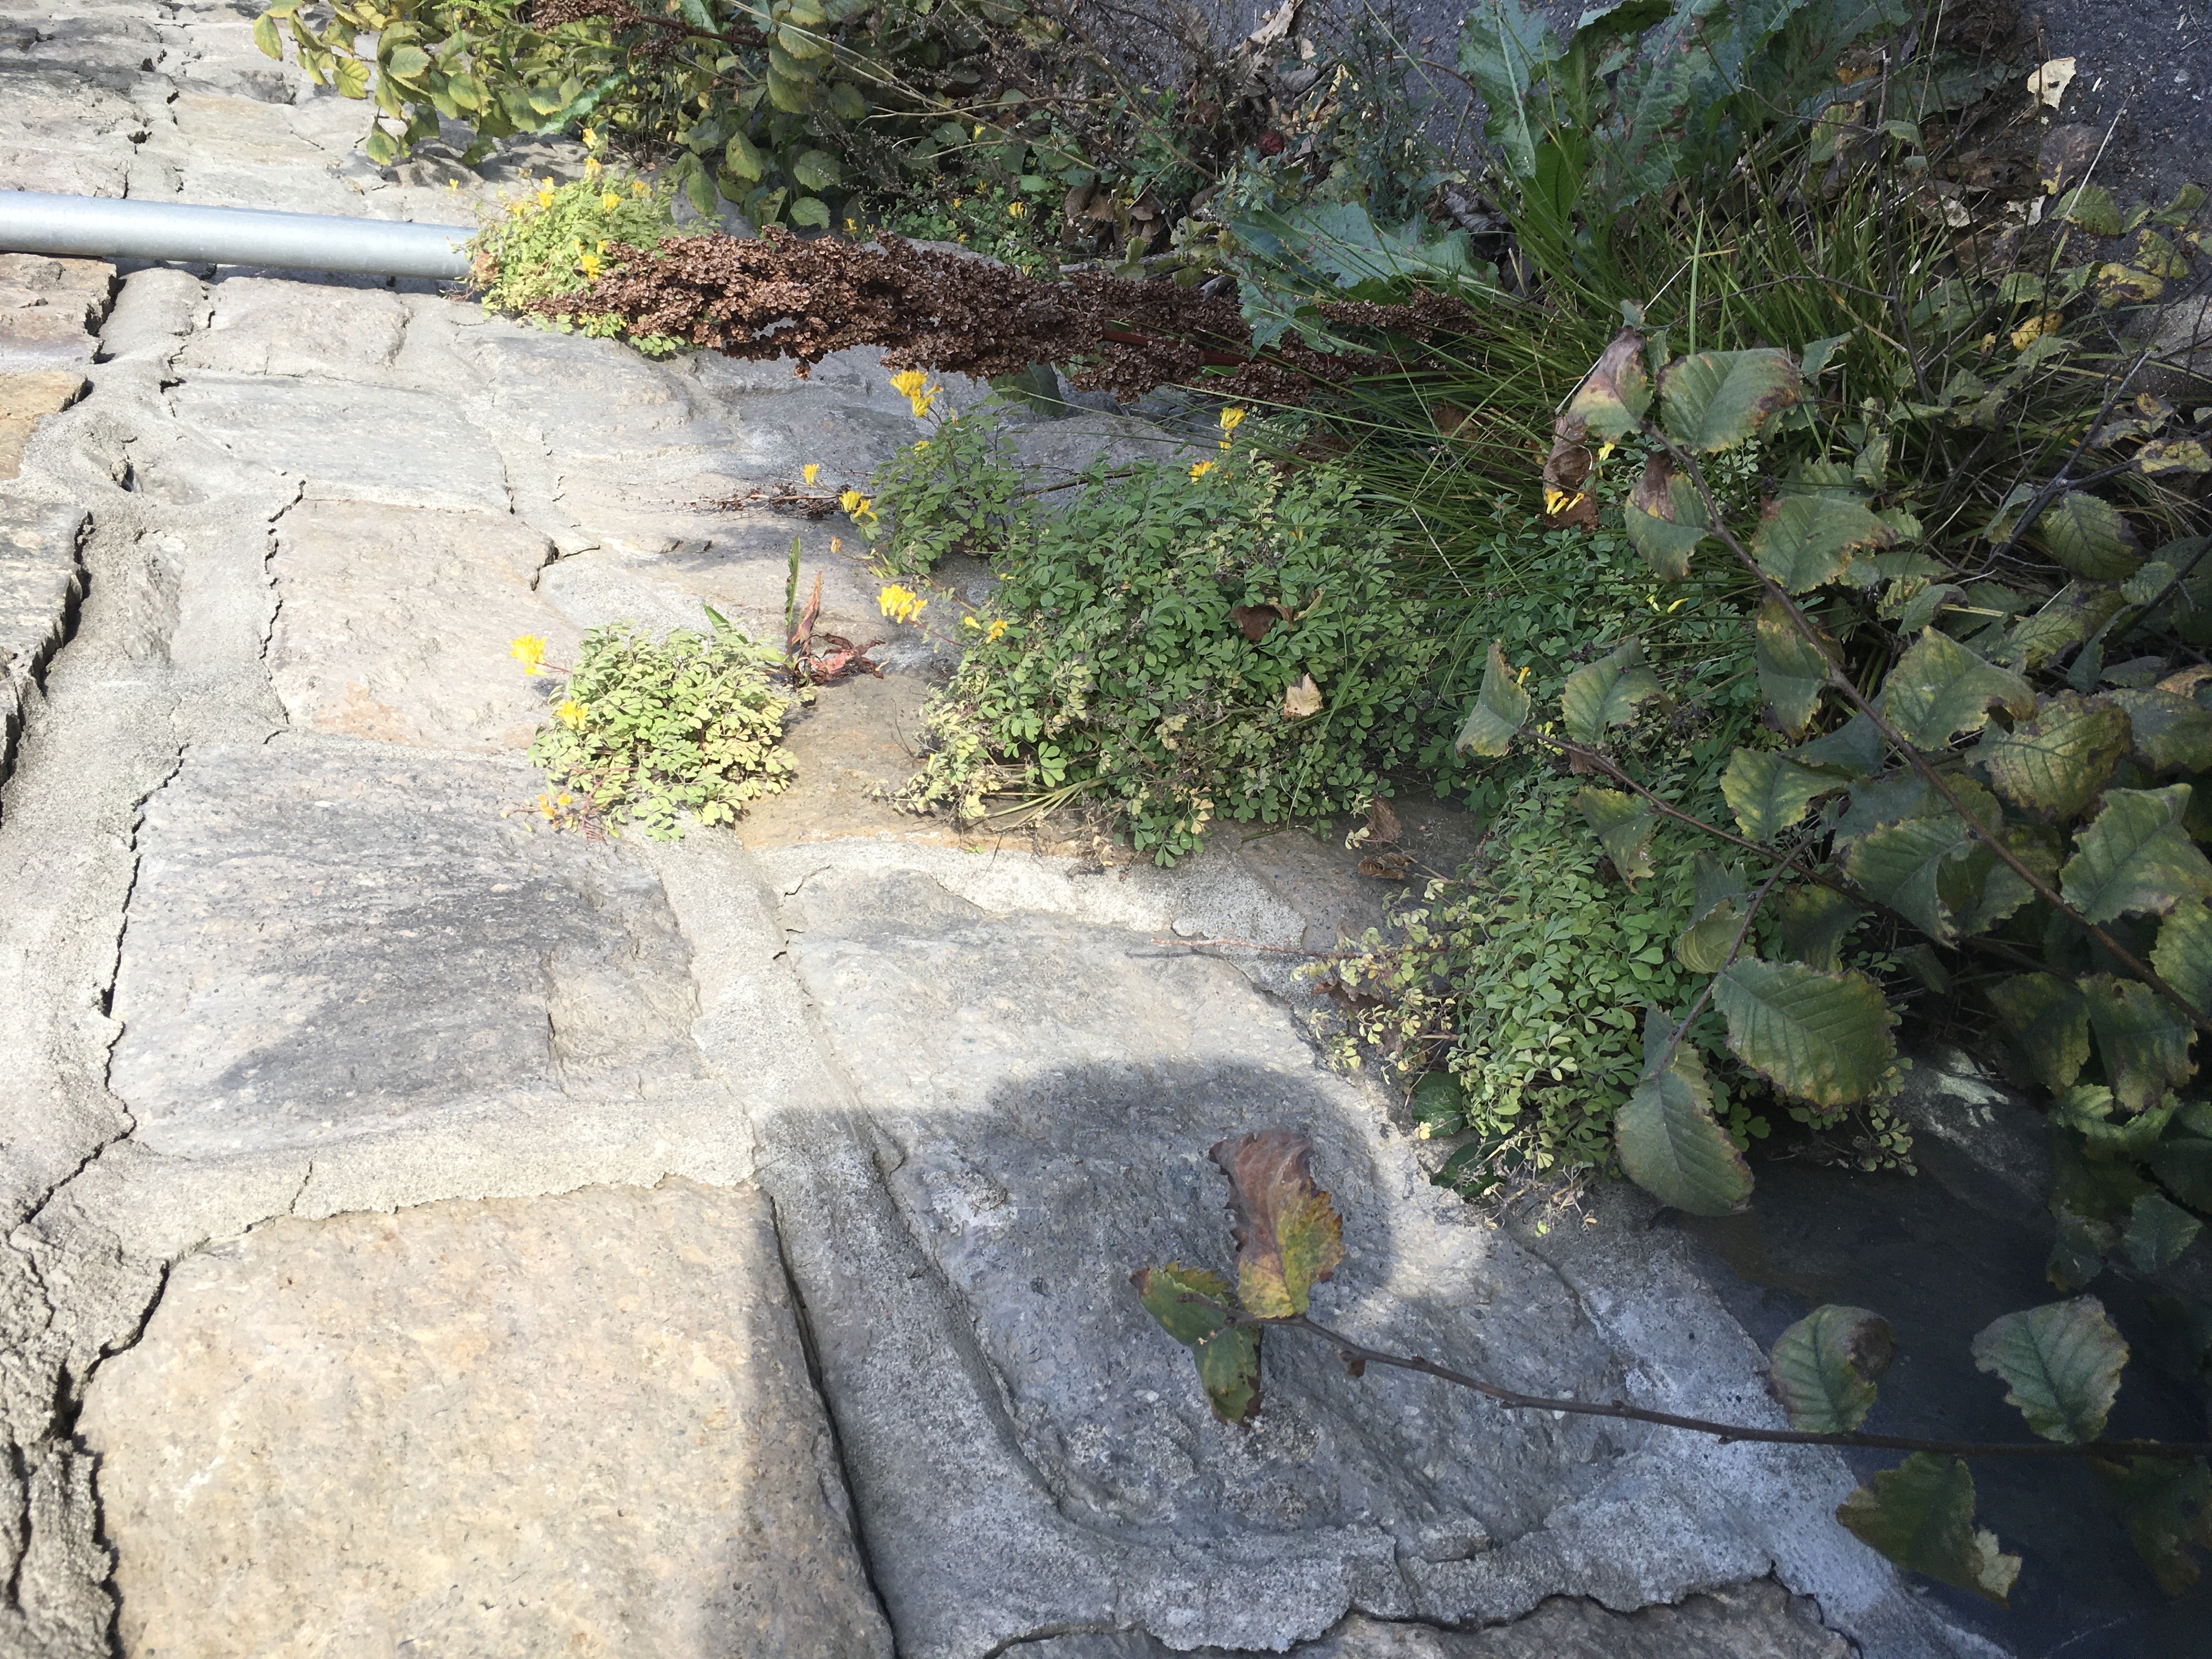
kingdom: Plantae
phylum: Tracheophyta
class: Magnoliopsida
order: Ranunculales
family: Papaveraceae
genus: Pseudofumaria
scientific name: Pseudofumaria lutea
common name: gul lerkespore
